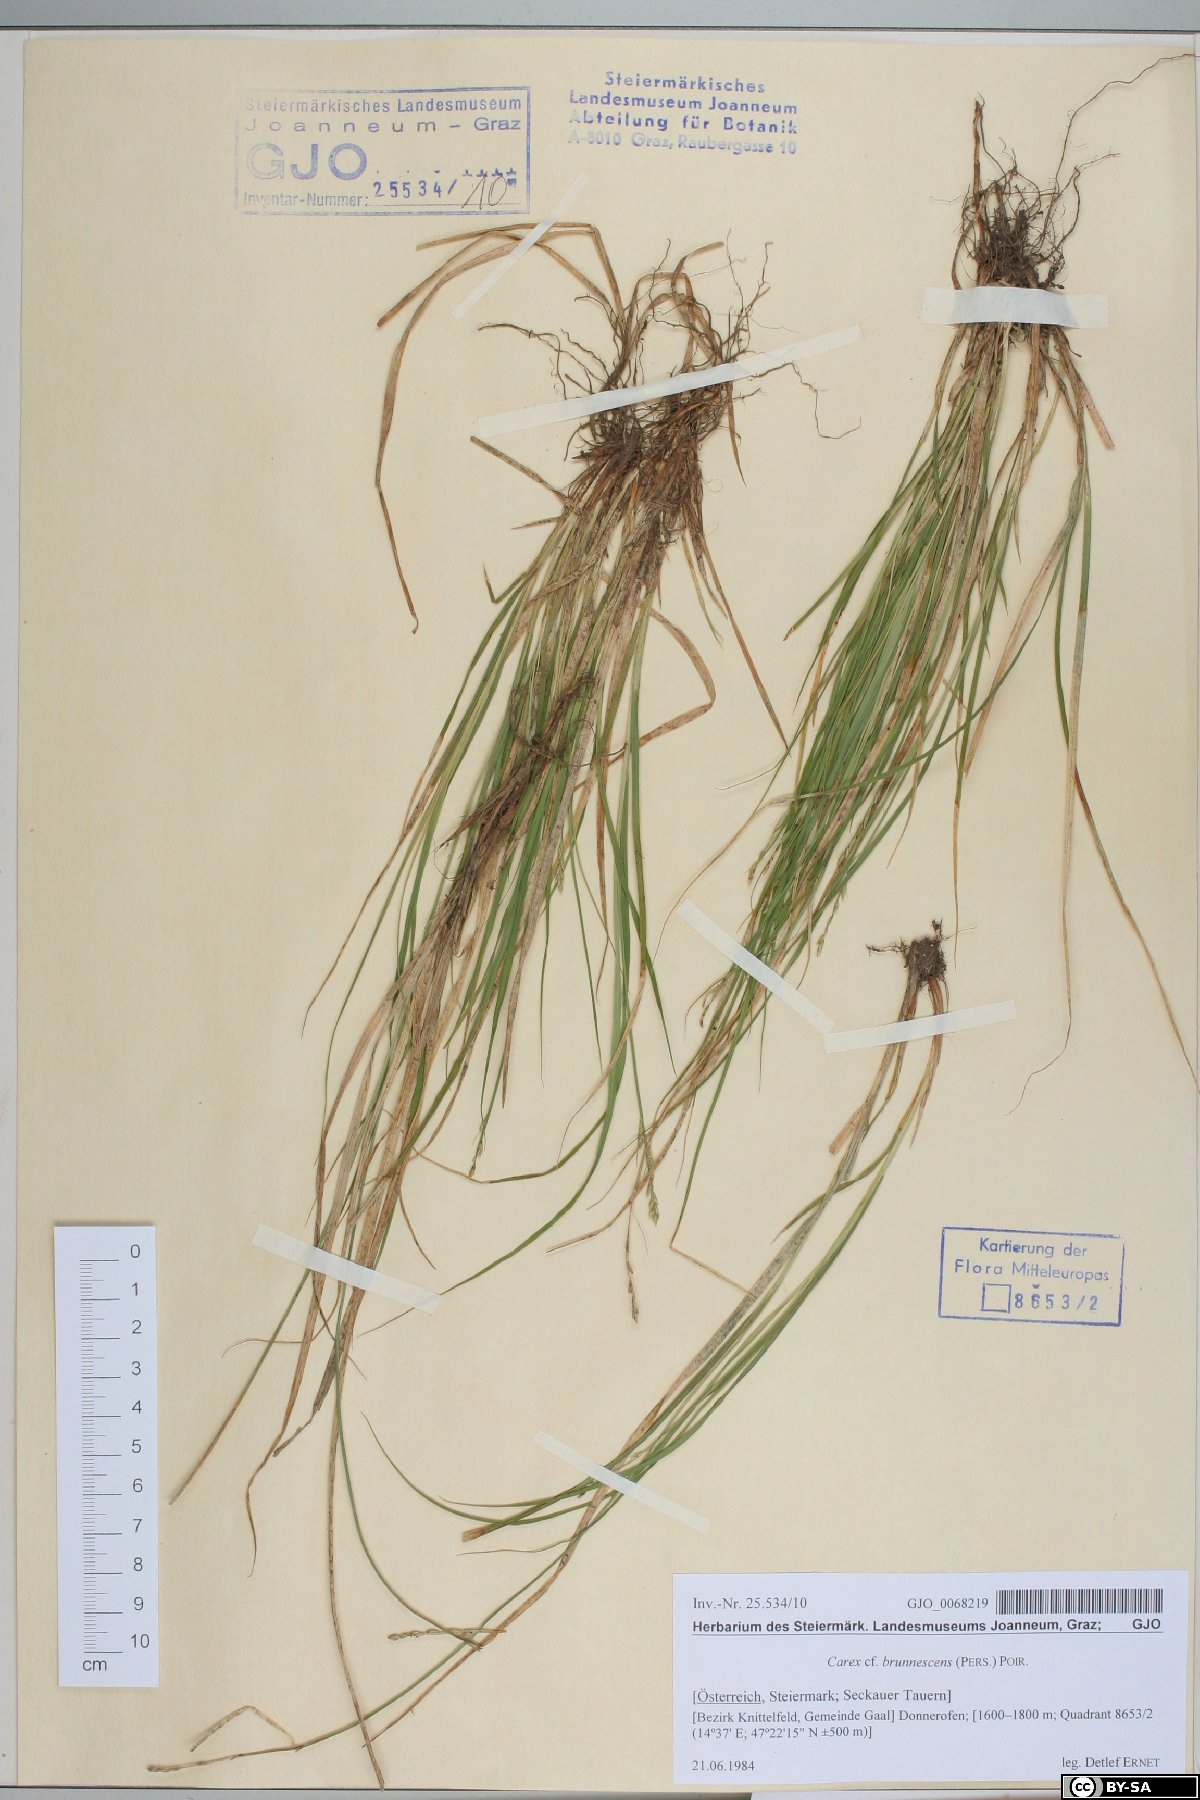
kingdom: Plantae
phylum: Tracheophyta
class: Liliopsida
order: Poales
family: Cyperaceae
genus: Carex
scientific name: Carex brunnescens
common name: Brown sedge
